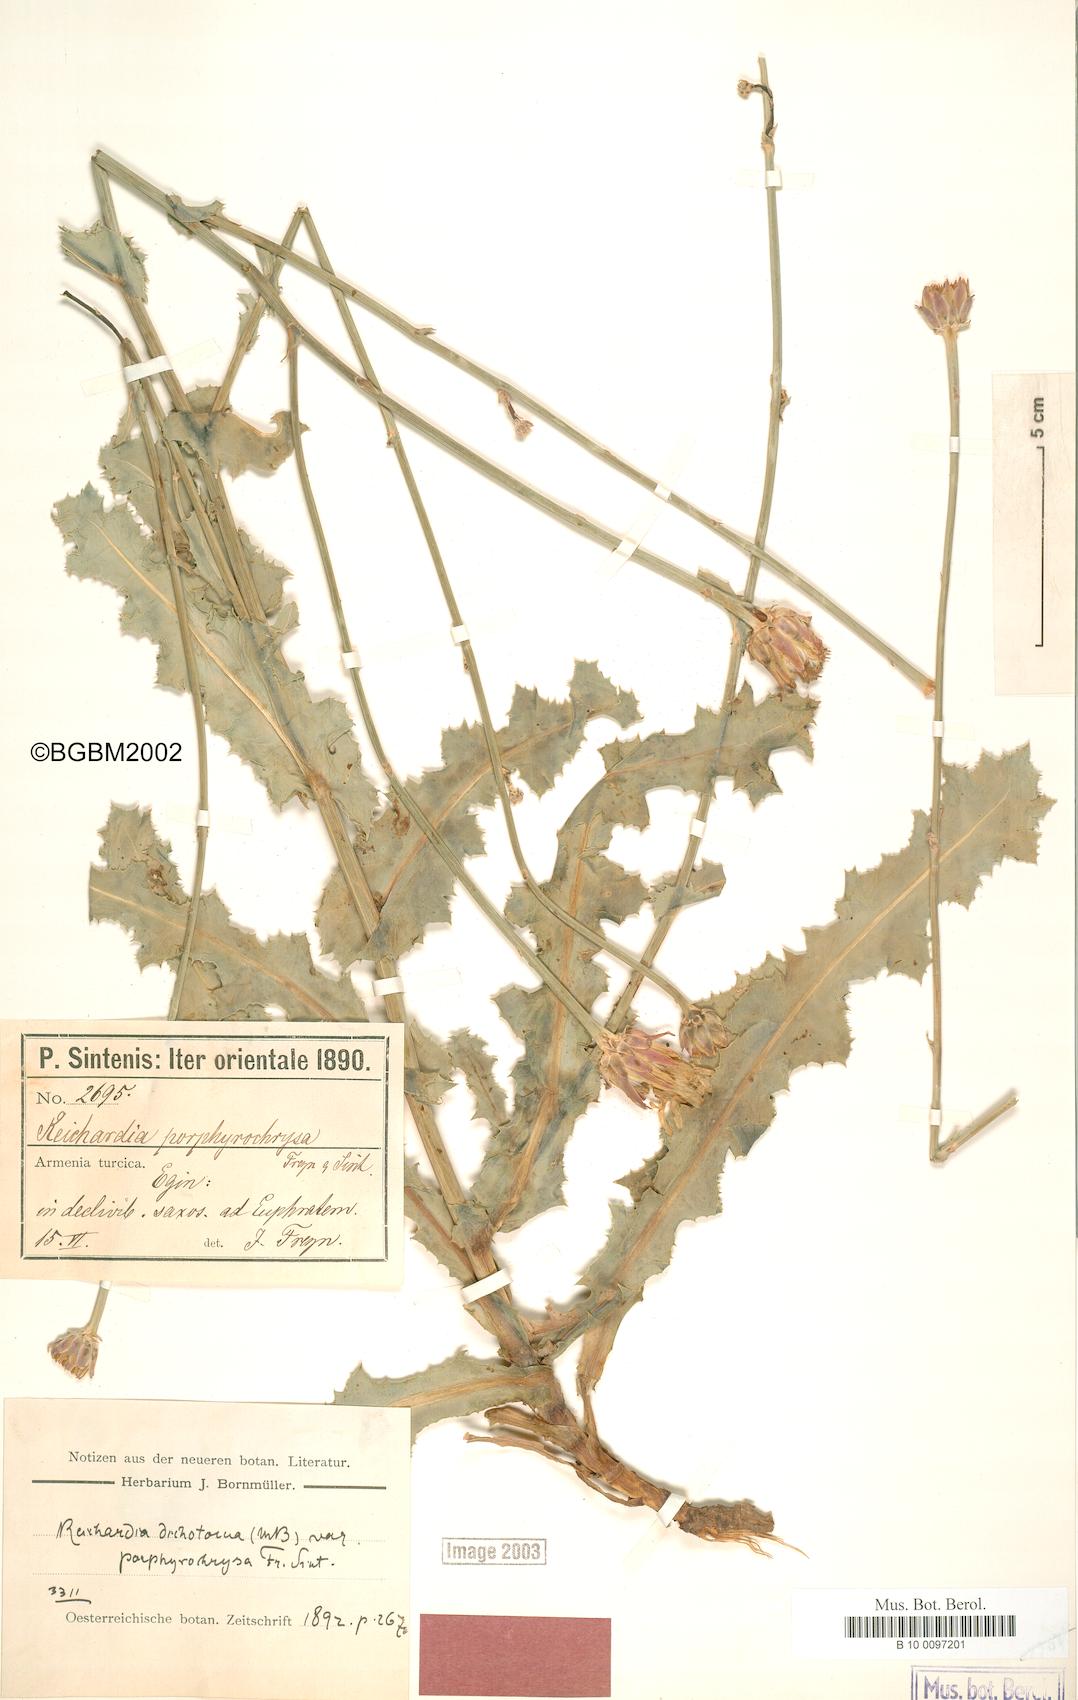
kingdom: Plantae
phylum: Tracheophyta
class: Magnoliopsida
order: Asterales
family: Asteraceae
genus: Reichardia
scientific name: Reichardia dichotoma
